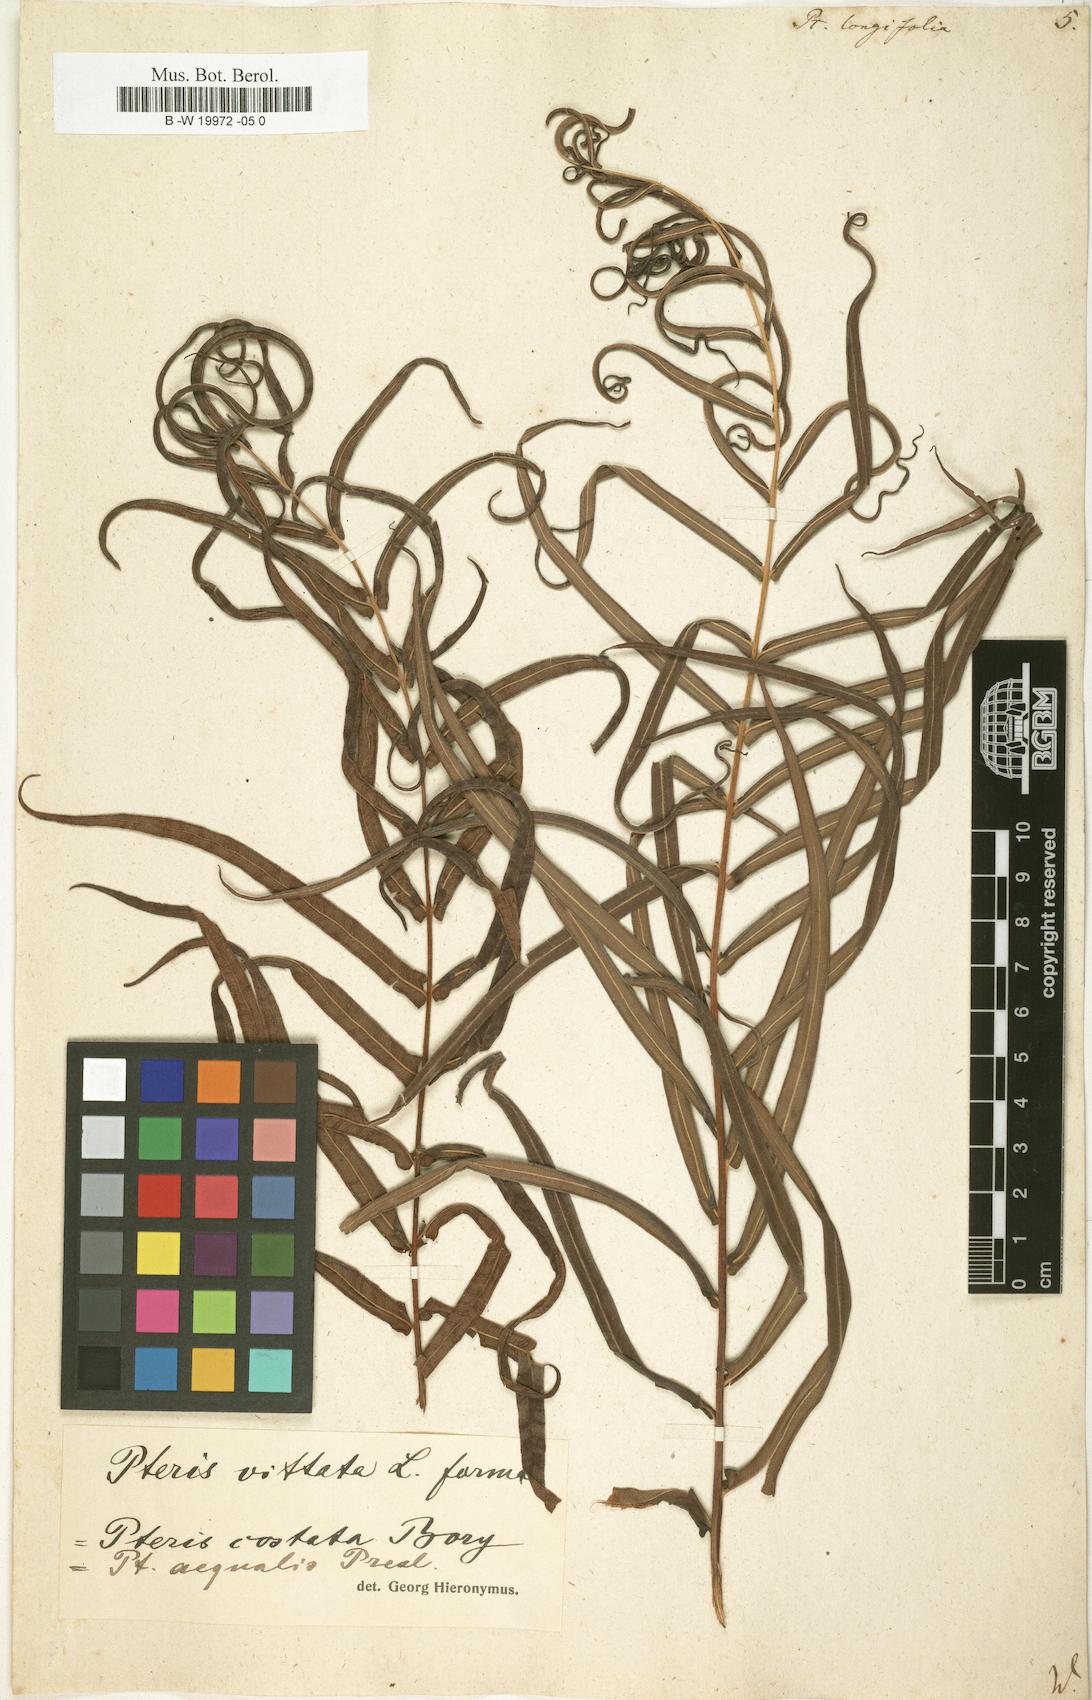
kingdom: Plantae
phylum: Tracheophyta
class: Polypodiopsida
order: Polypodiales
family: Pteridaceae
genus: Pteris
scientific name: Pteris longifolia
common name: Longleaf brake
